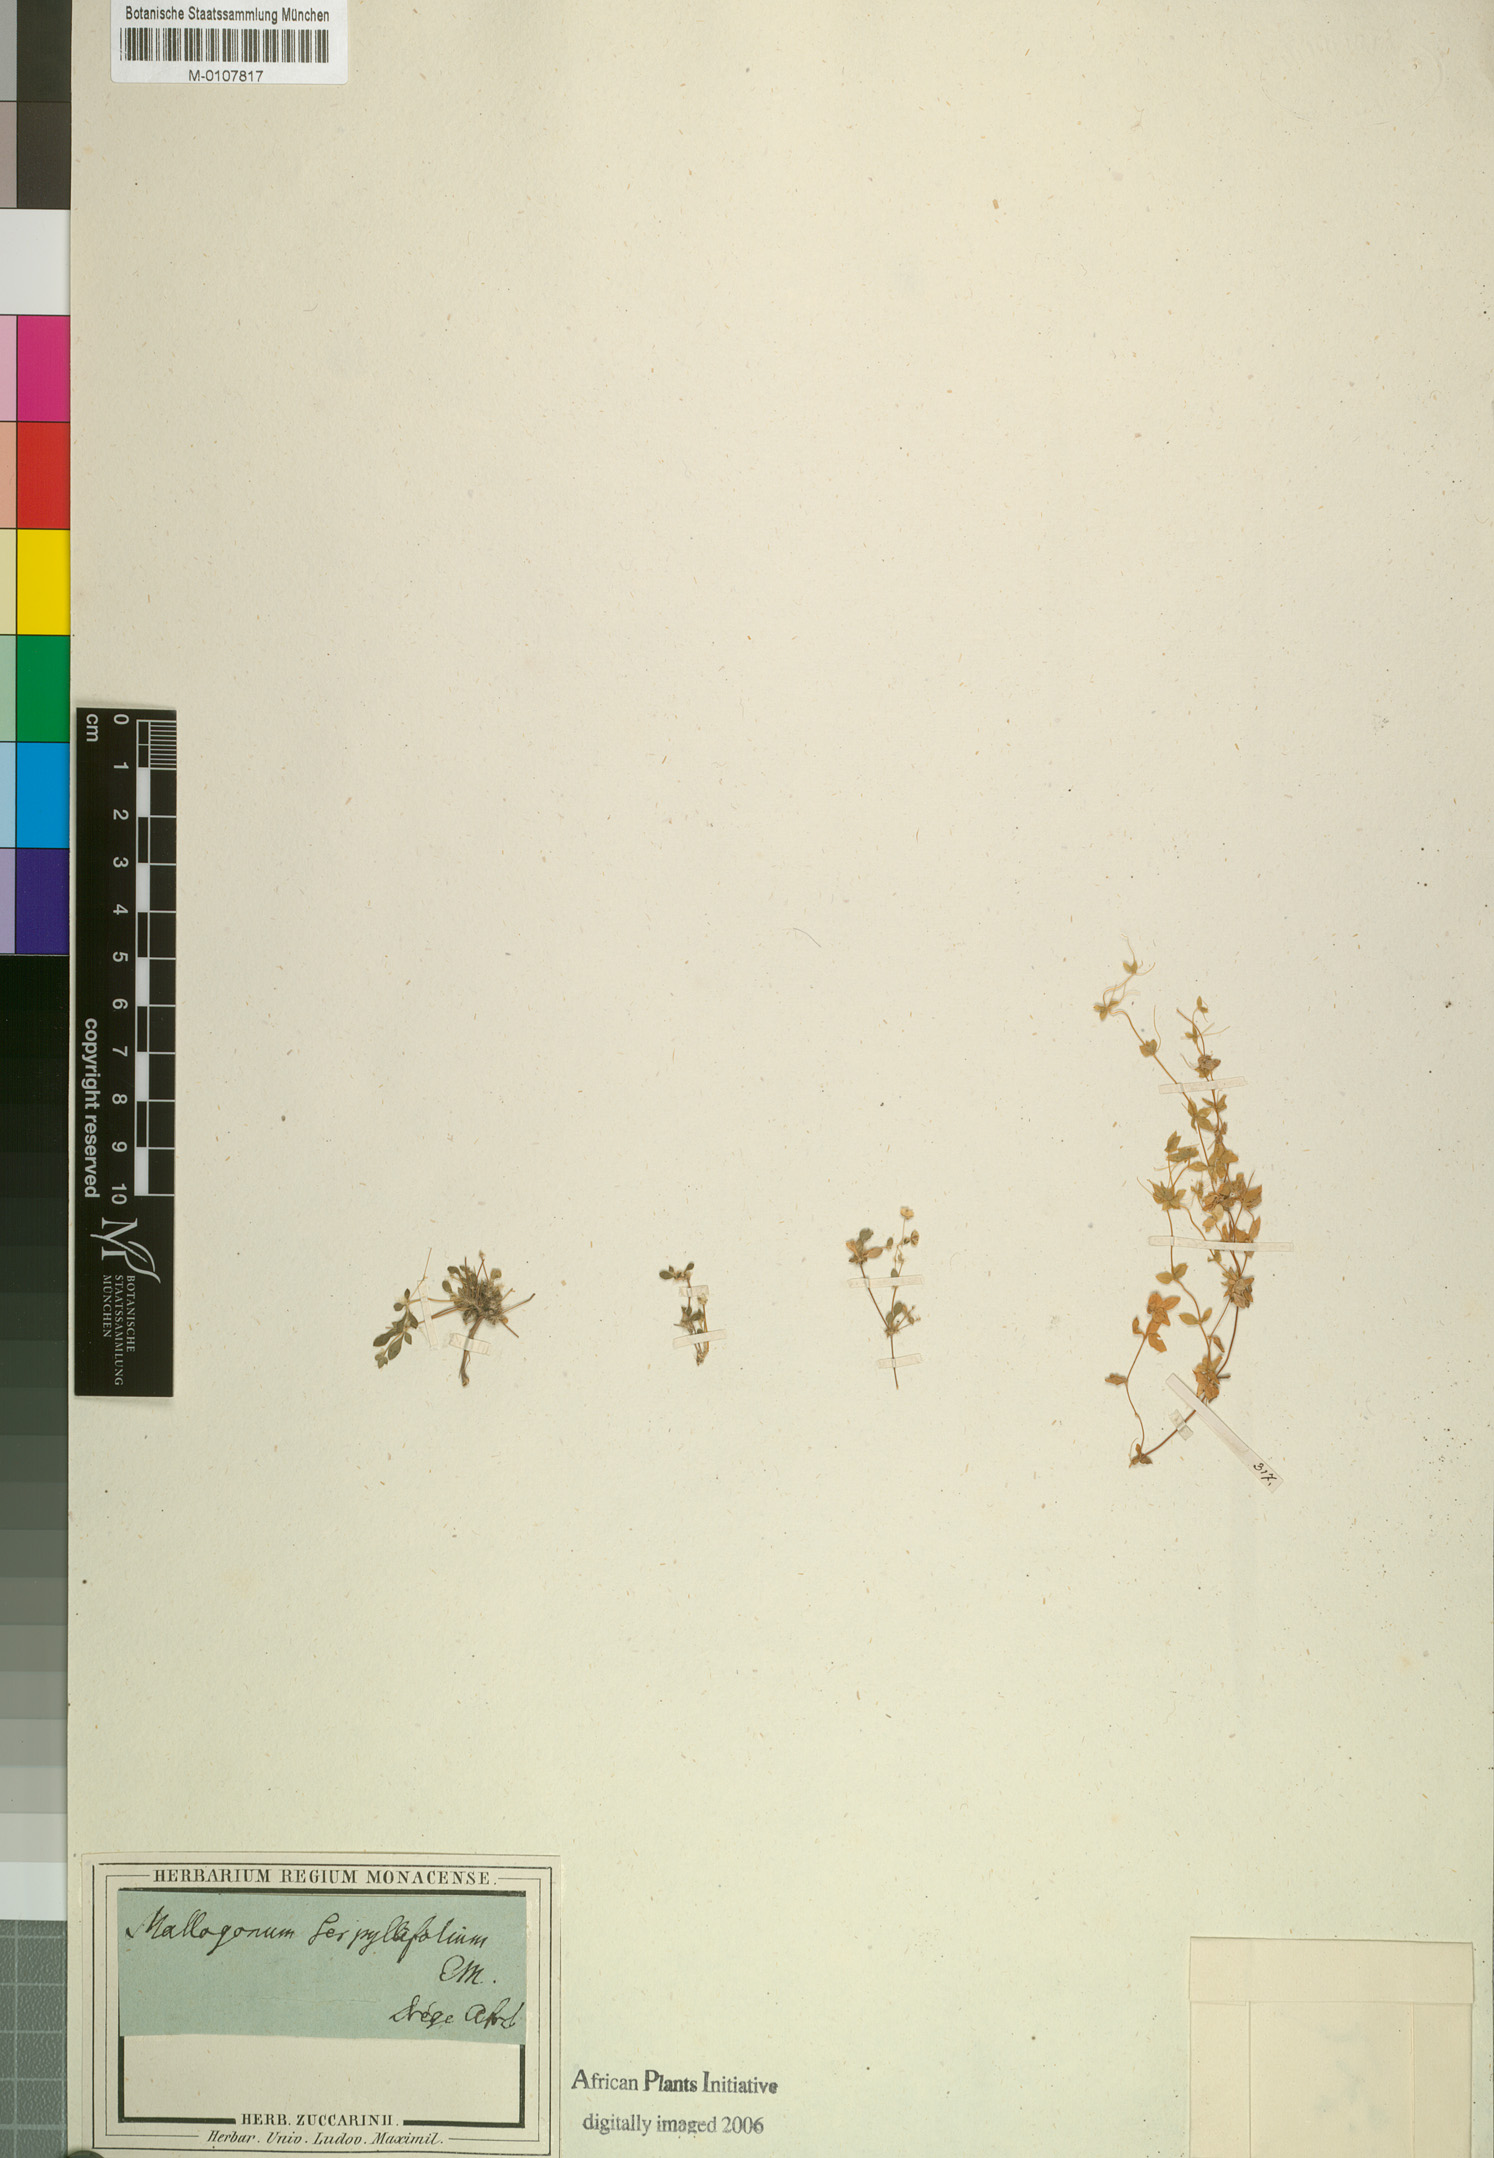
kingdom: Plantae
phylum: Tracheophyta
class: Magnoliopsida
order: Caryophyllales
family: Molluginaceae
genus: Pharnaceum
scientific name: Pharnaceum serpyllifolium
